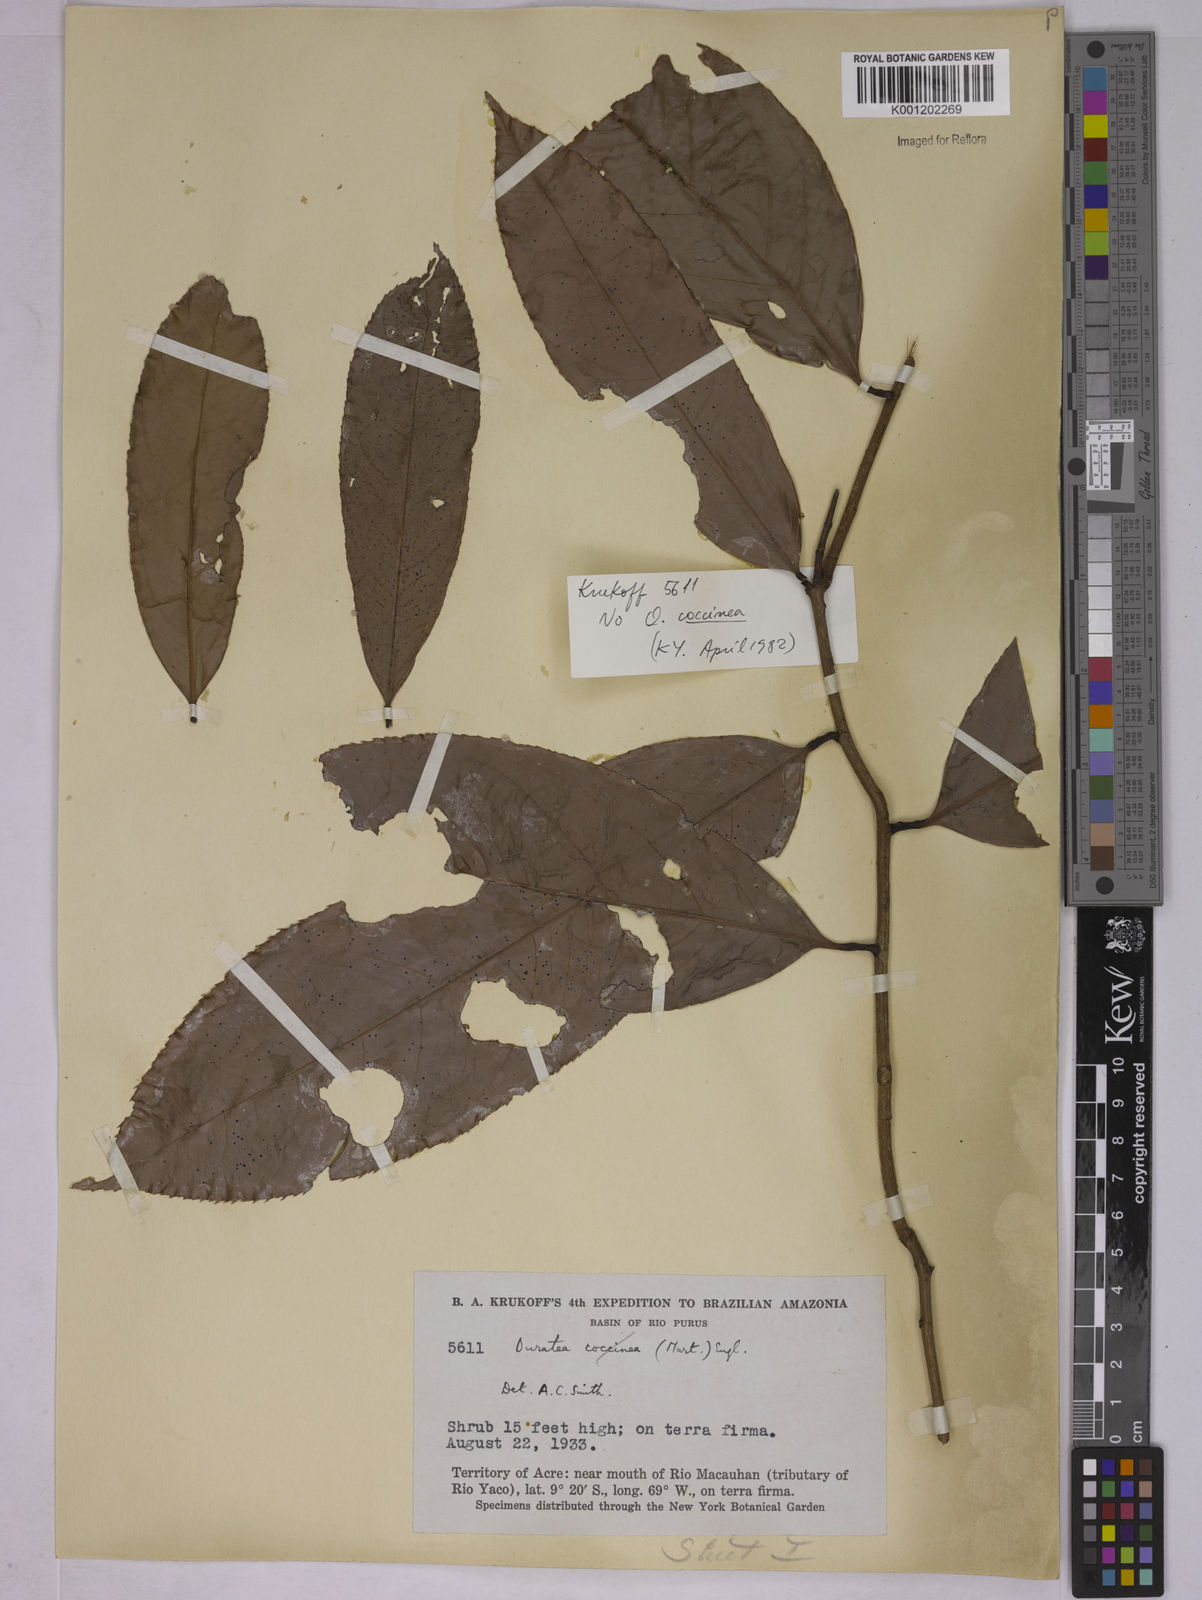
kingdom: Plantae
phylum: Tracheophyta
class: Magnoliopsida
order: Malpighiales
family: Ochnaceae
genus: Ouratea
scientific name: Ouratea
